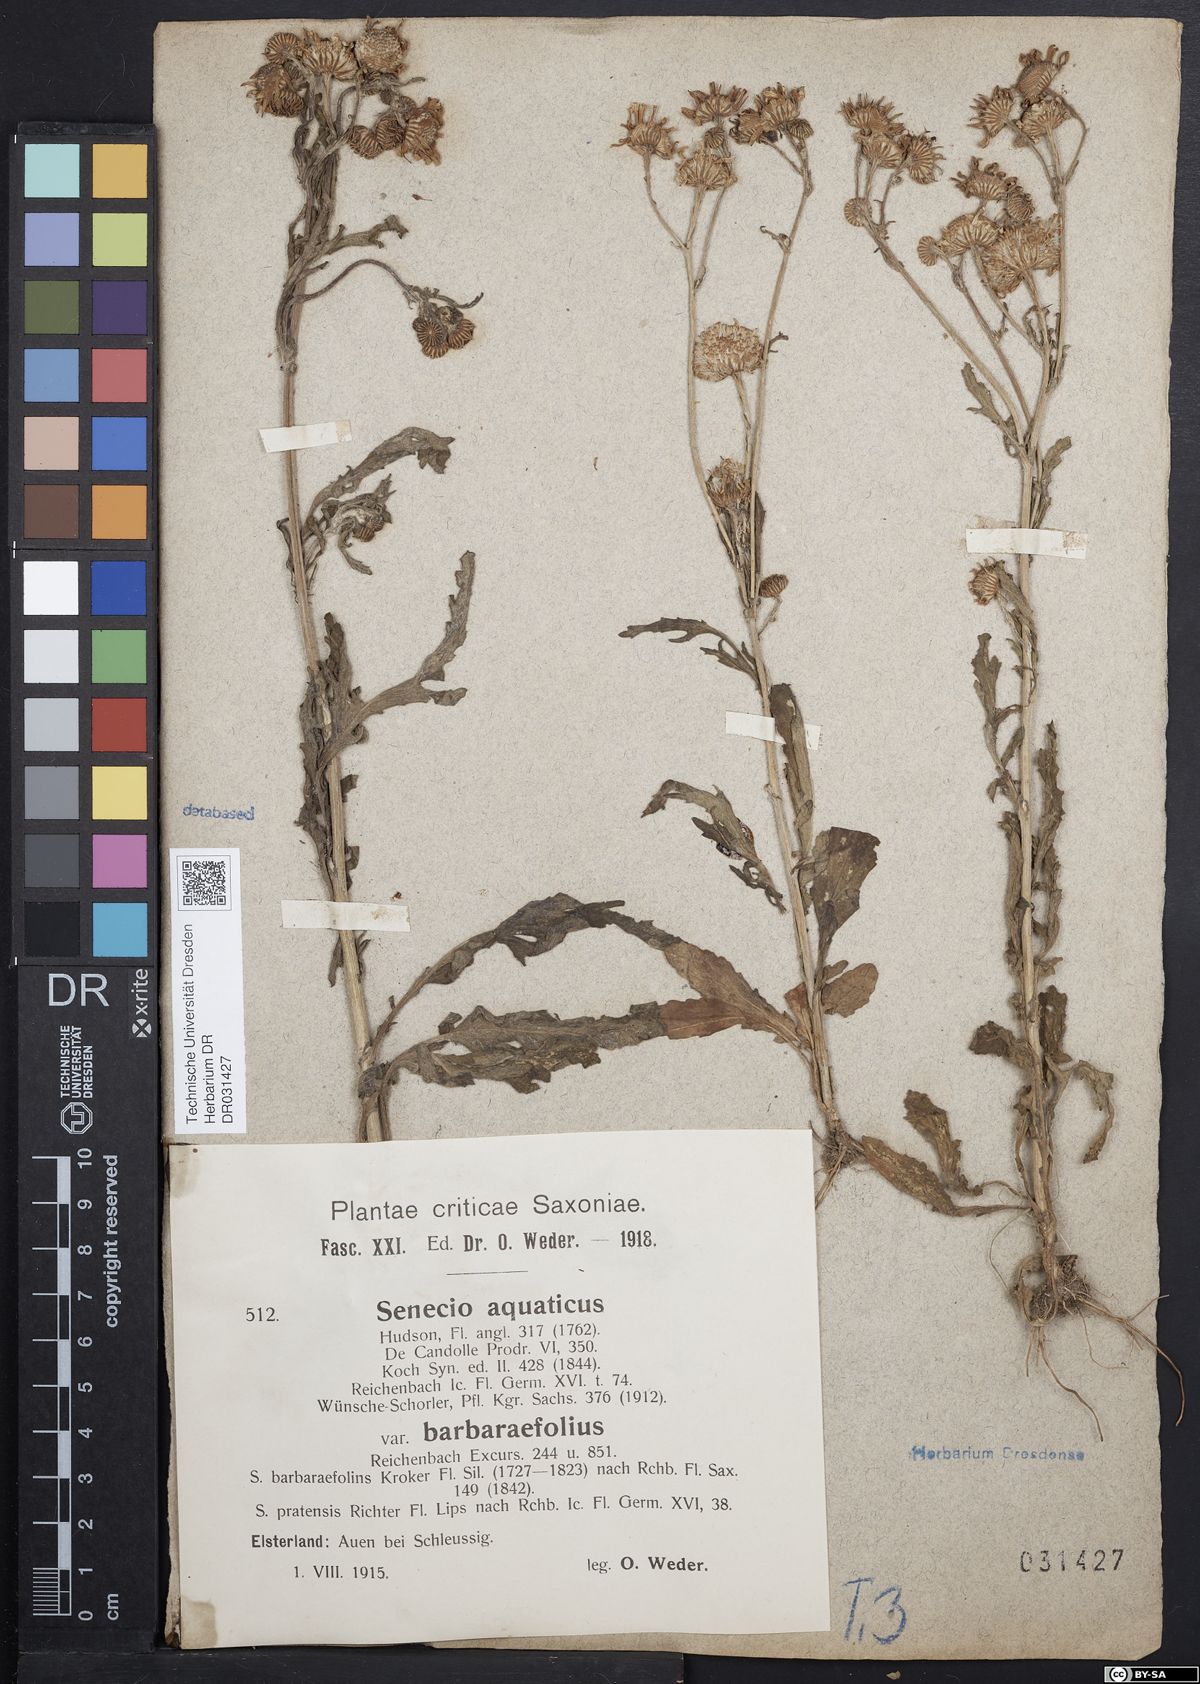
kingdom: Plantae
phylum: Tracheophyta
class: Magnoliopsida
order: Asterales
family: Asteraceae
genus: Jacobaea
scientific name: Jacobaea aquatica
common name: Water ragwort
